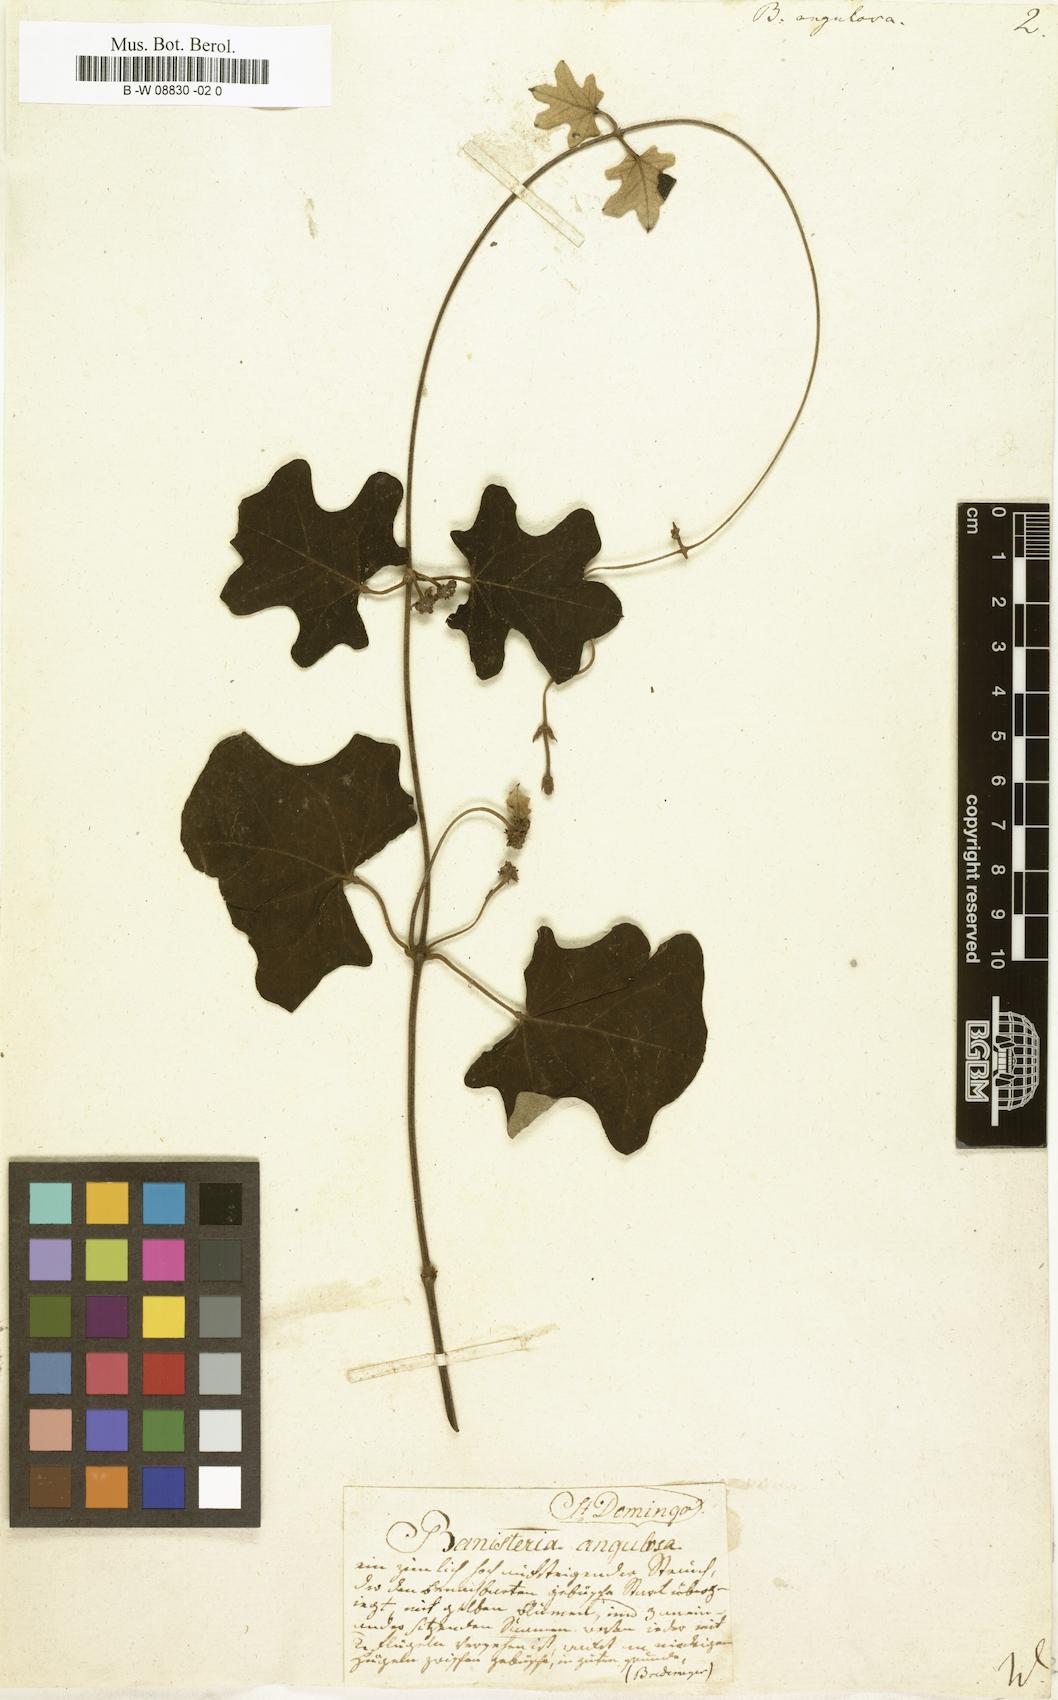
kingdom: Plantae
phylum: Tracheophyta
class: Magnoliopsida
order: Malpighiales
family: Malpighiaceae
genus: Stigmaphyllon
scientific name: Stigmaphyllon angulosum
